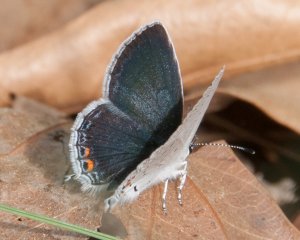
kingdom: Animalia
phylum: Arthropoda
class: Insecta
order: Lepidoptera
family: Lycaenidae
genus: Elkalyce
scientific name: Elkalyce comyntas
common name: Eastern Tailed-Blue
